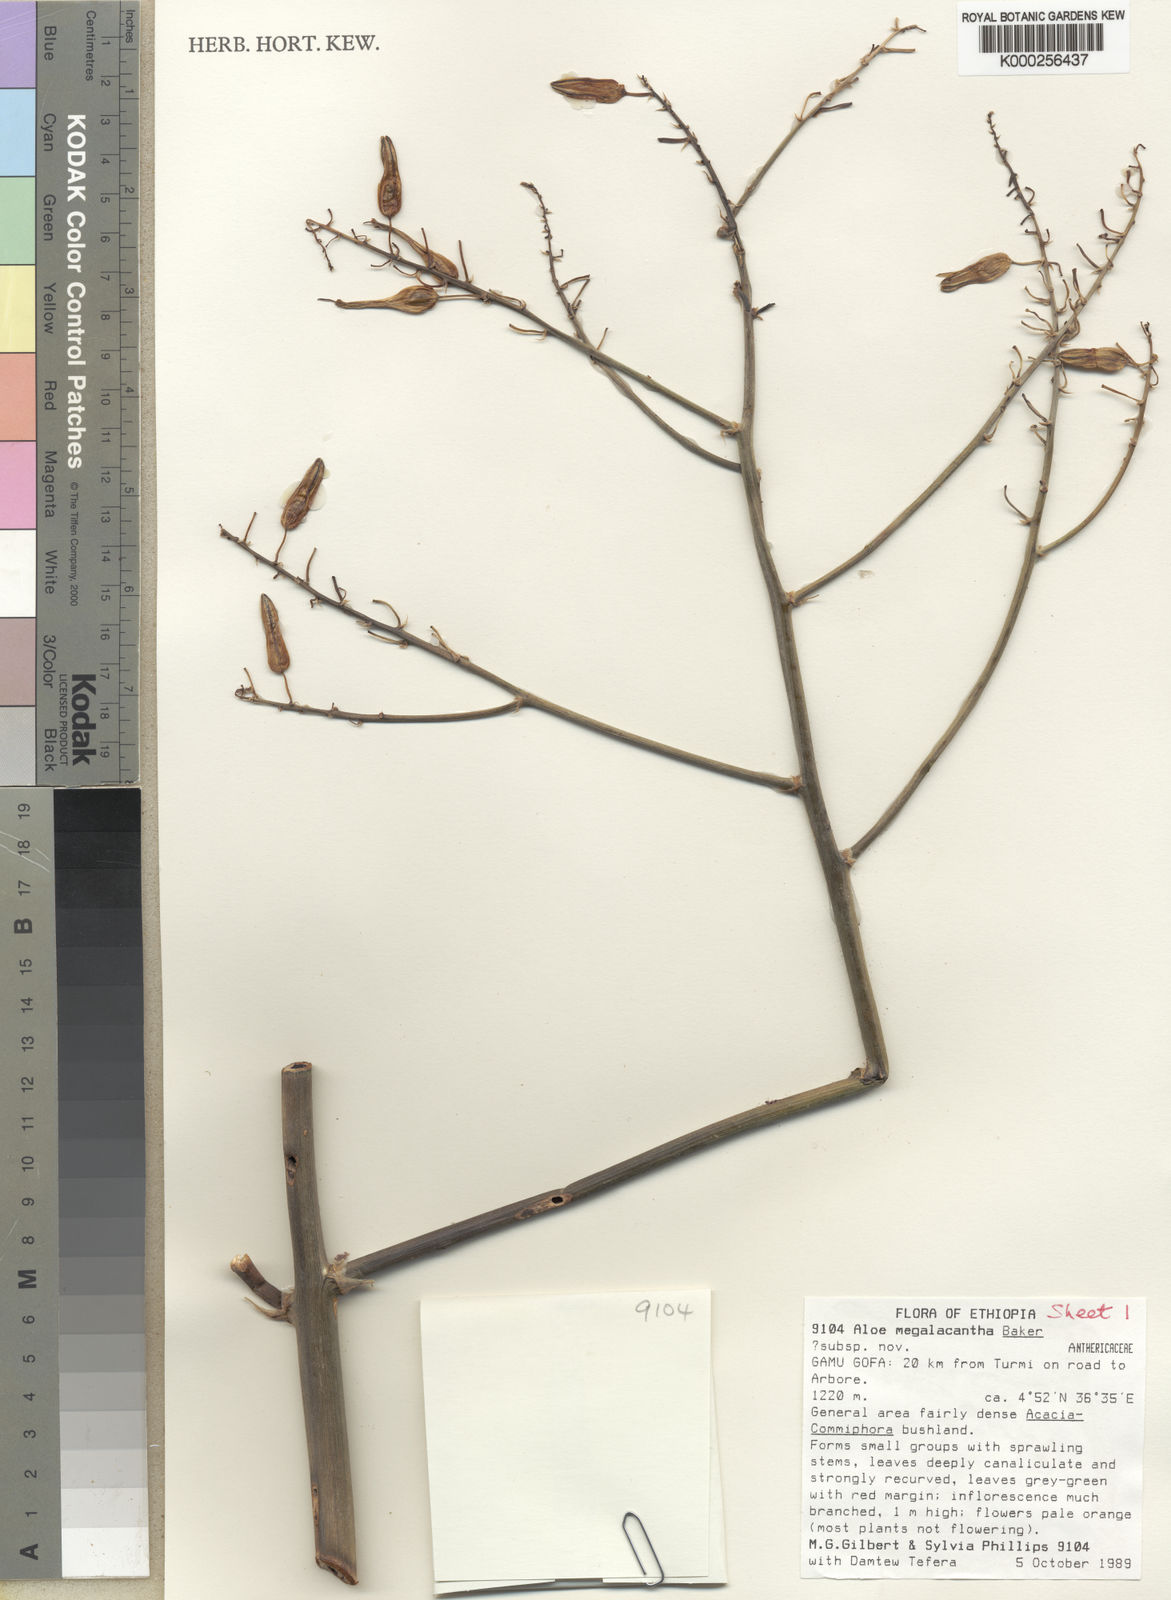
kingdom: Plantae
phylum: Tracheophyta
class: Liliopsida
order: Asparagales
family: Asphodelaceae
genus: Aloe
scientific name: Aloe gilbertii
